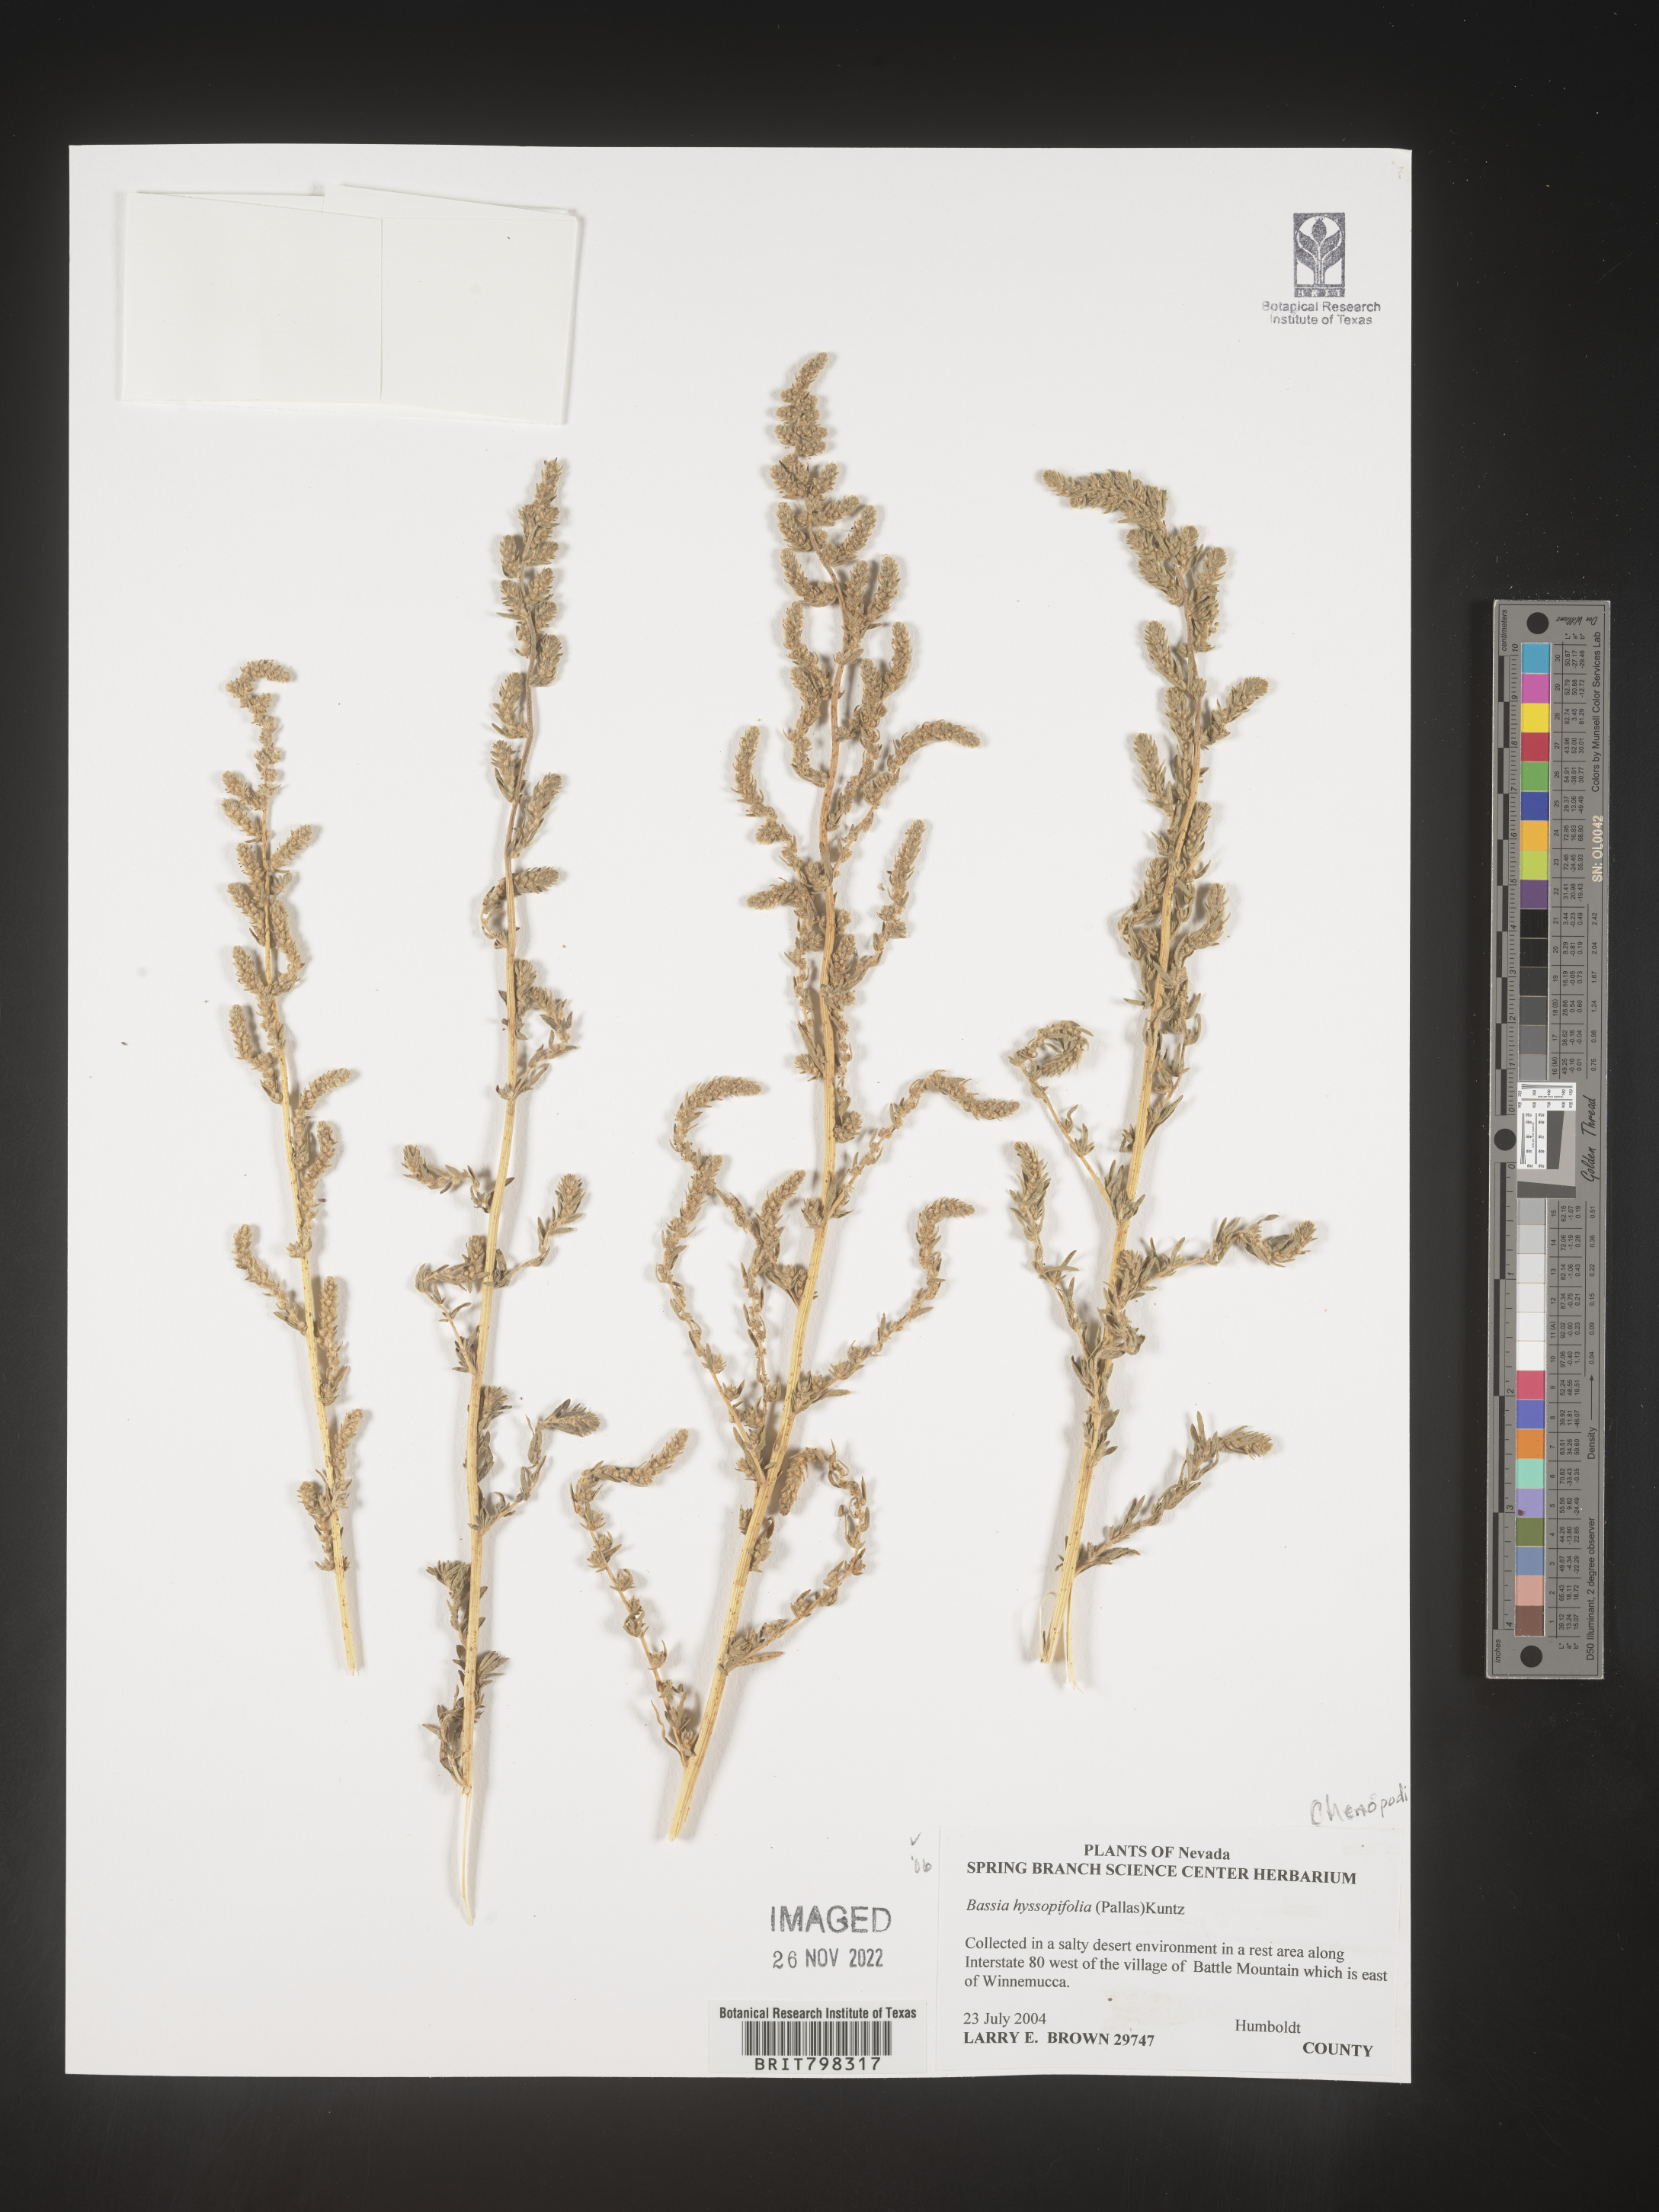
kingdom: Plantae
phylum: Tracheophyta
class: Magnoliopsida
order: Caryophyllales
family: Amaranthaceae
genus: Bassia
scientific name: Bassia
